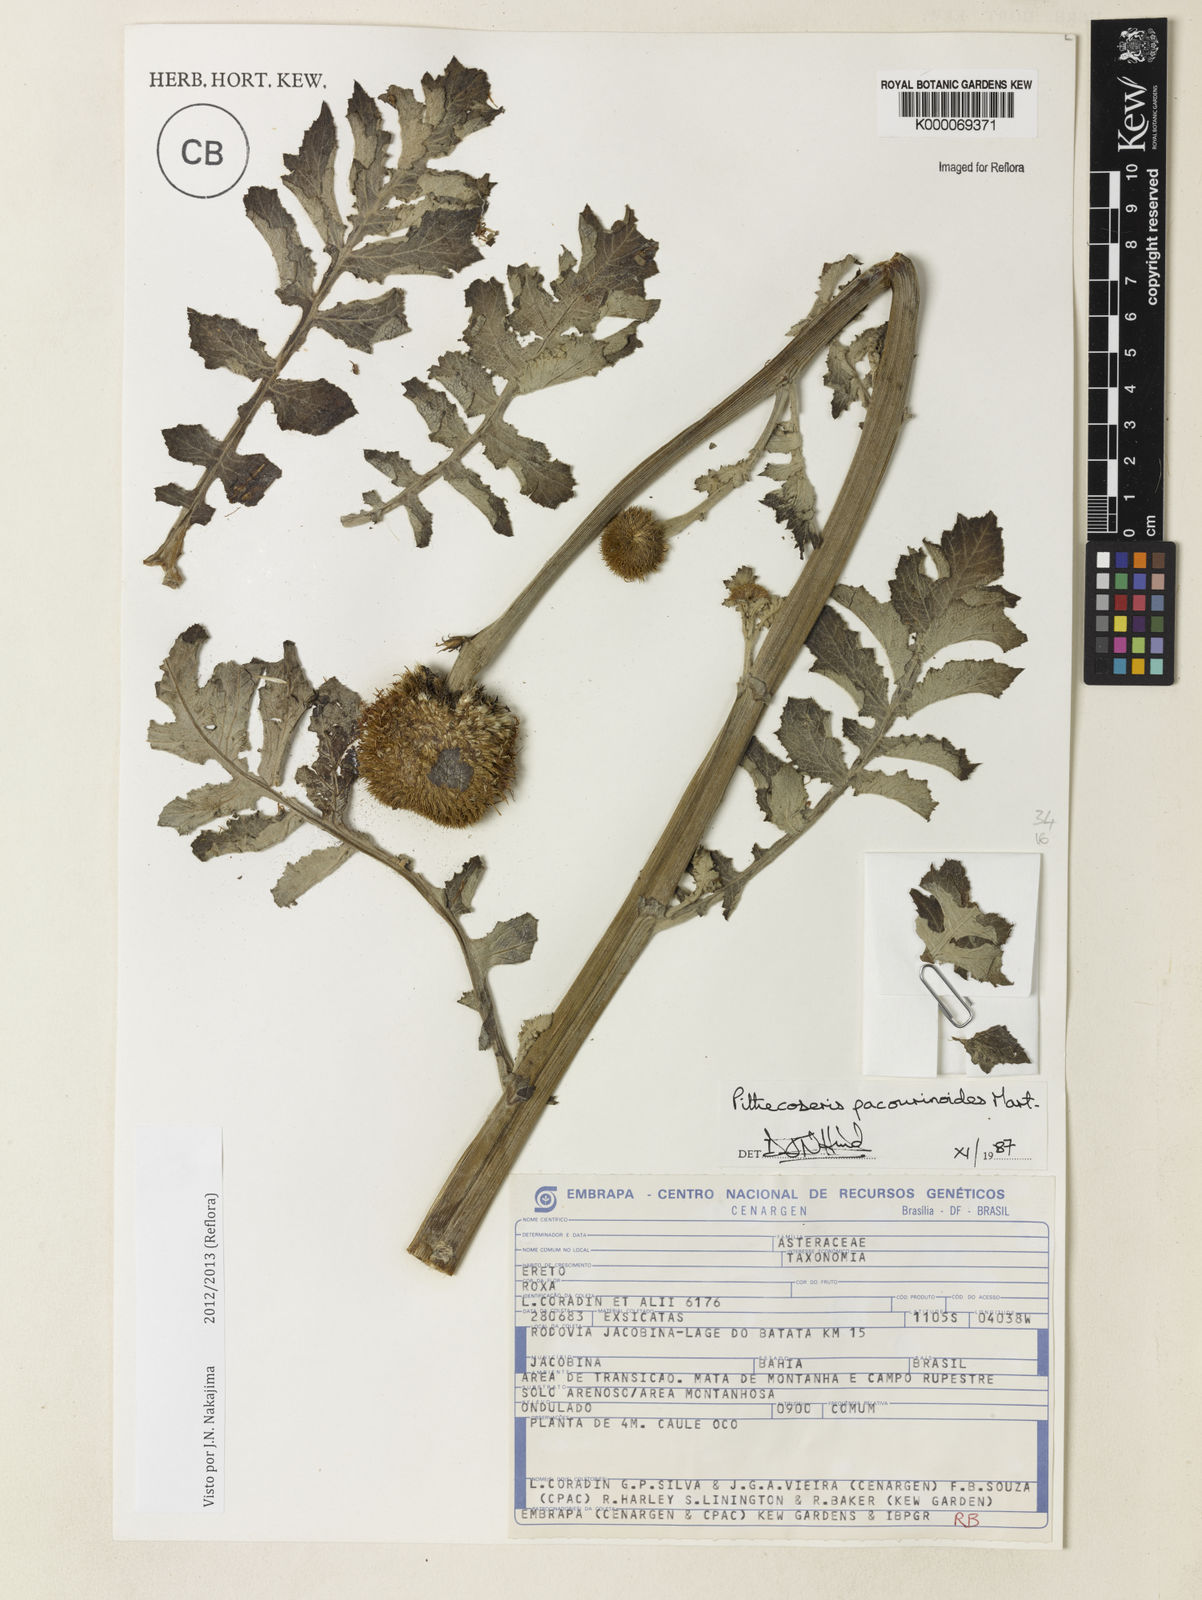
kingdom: Plantae
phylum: Tracheophyta
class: Magnoliopsida
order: Asterales
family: Asteraceae
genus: Chresta
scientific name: Chresta pacourinoides
